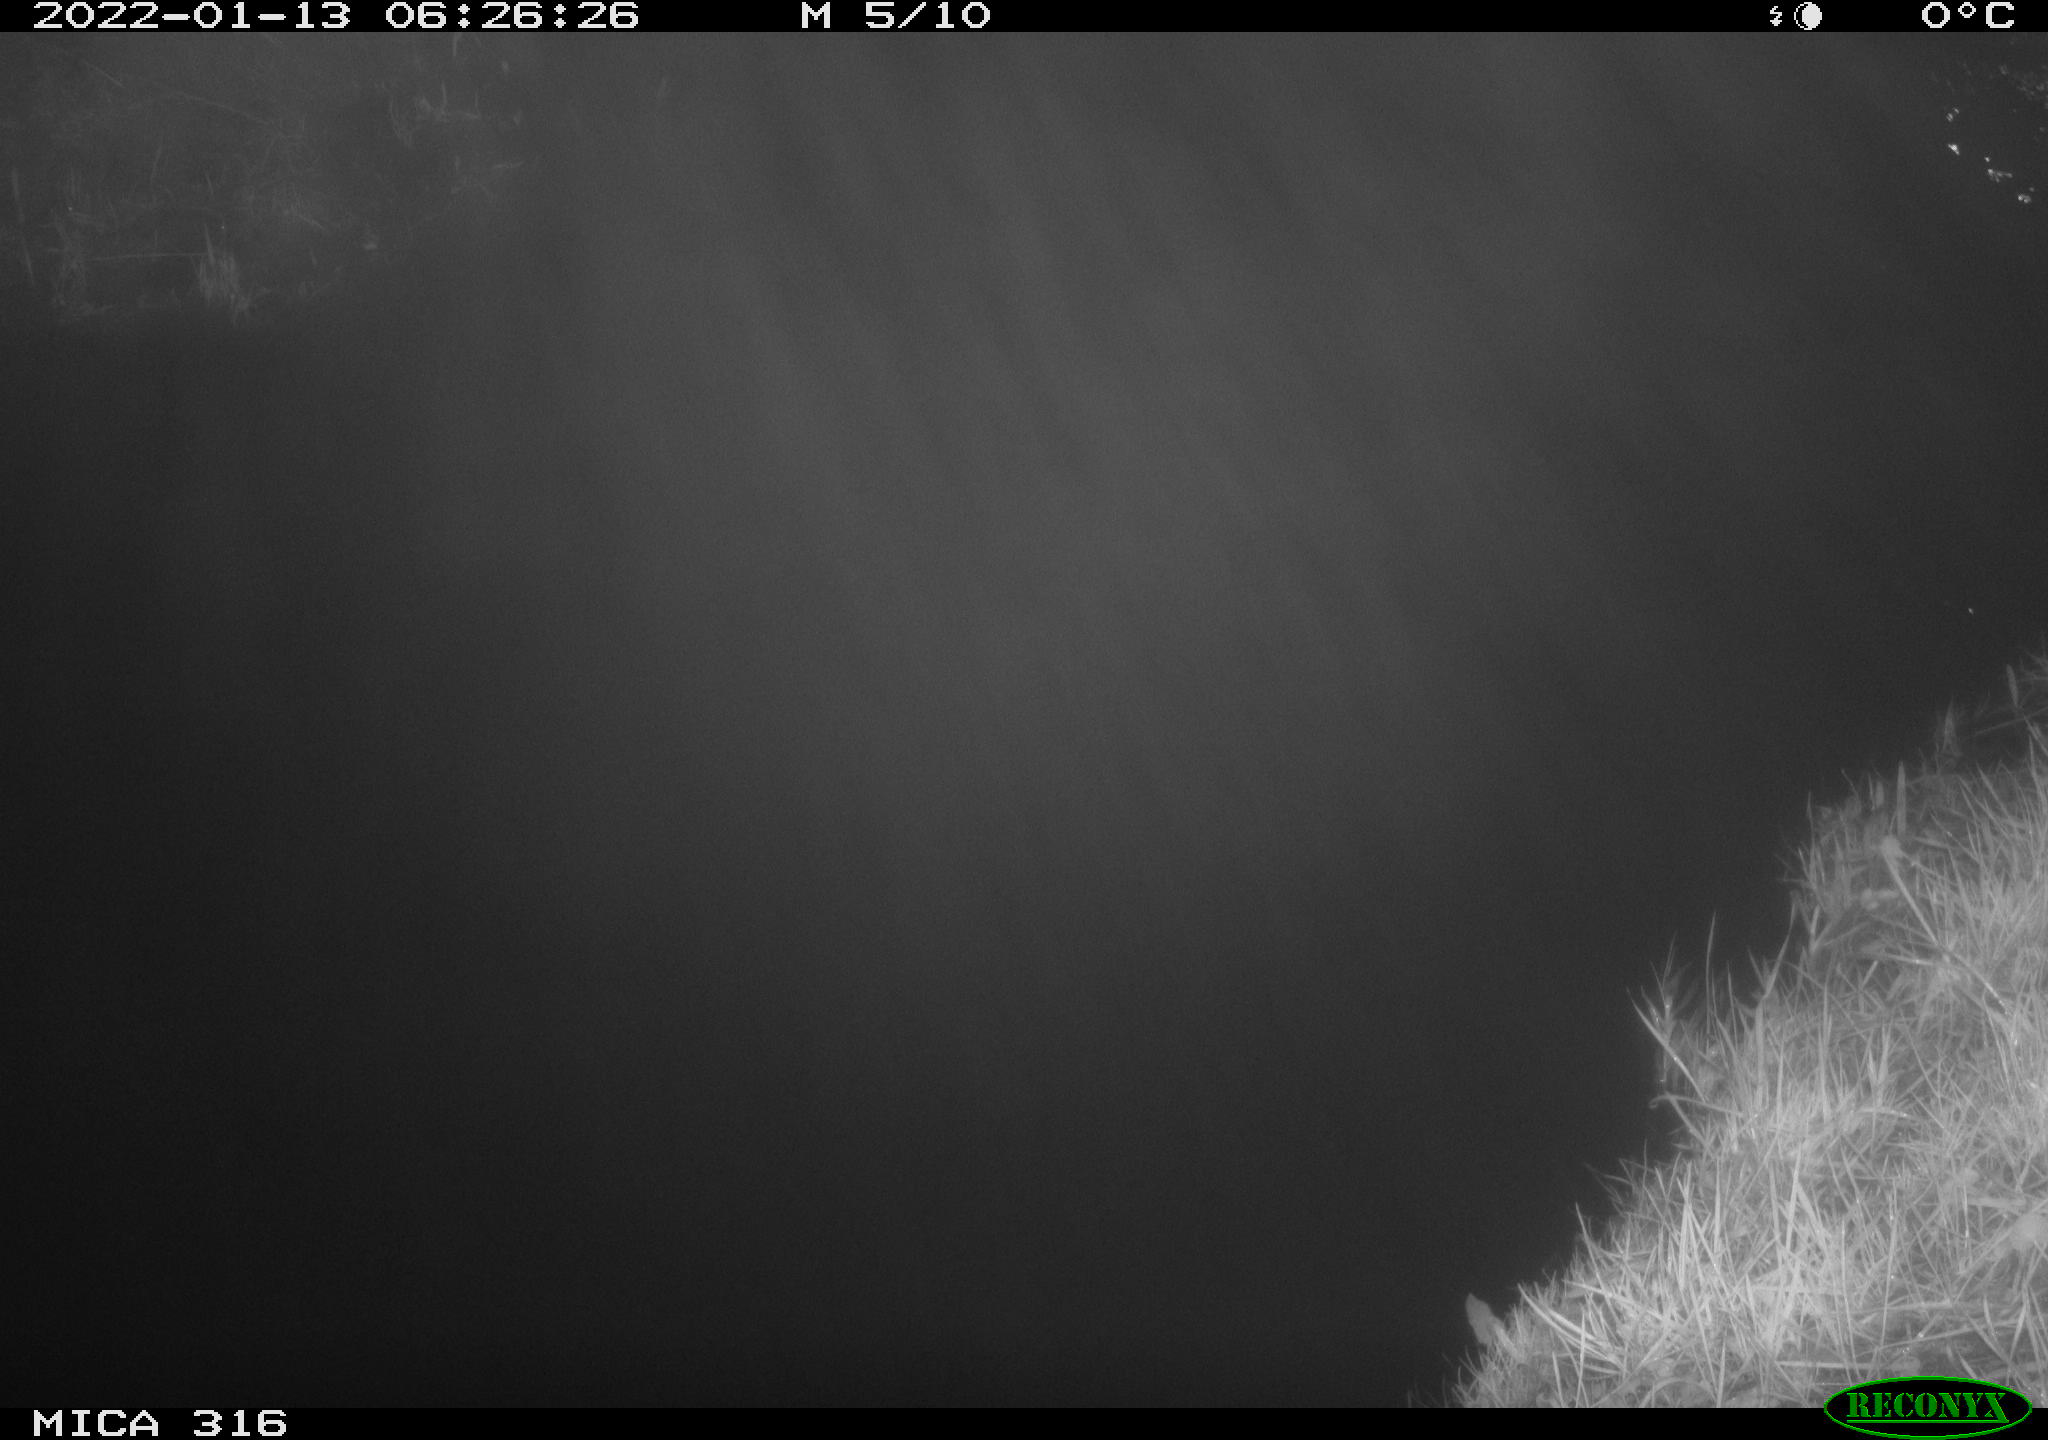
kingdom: Animalia
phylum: Chordata
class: Mammalia
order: Rodentia
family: Muridae
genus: Rattus
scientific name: Rattus norvegicus
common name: Brown rat
